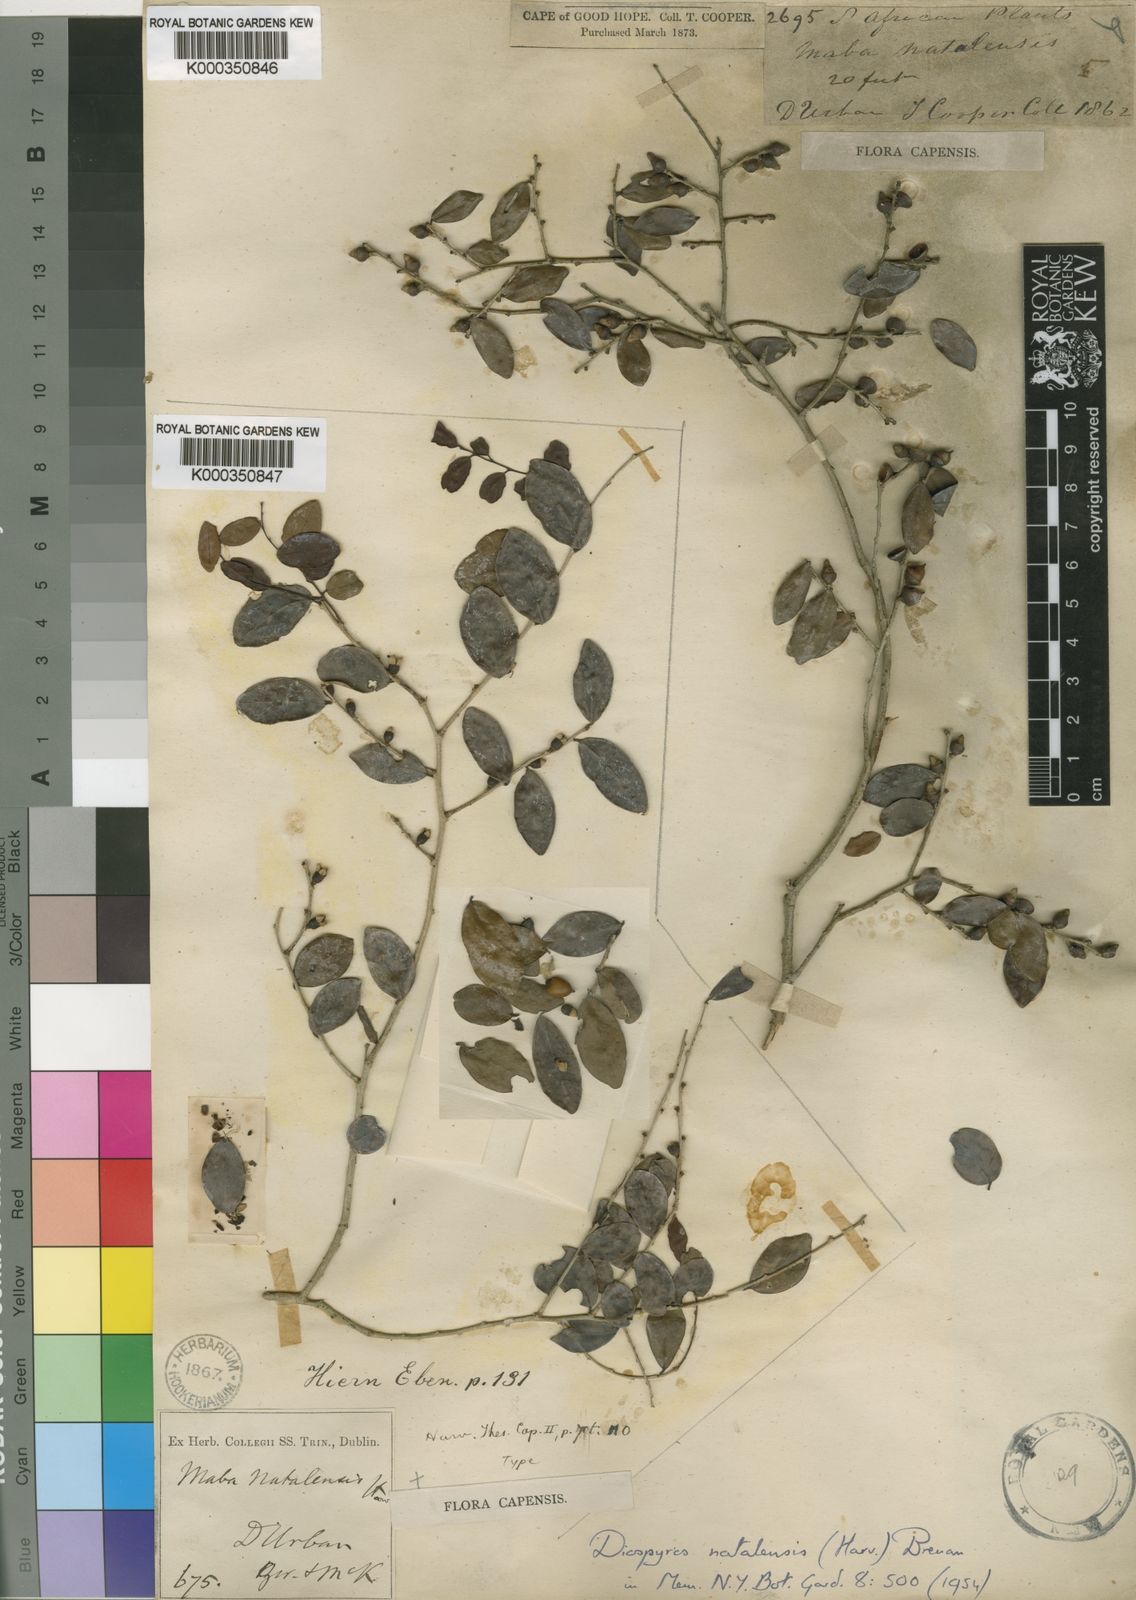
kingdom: Plantae
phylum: Tracheophyta
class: Magnoliopsida
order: Ericales
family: Ebenaceae
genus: Diospyros
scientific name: Diospyros natalensis
